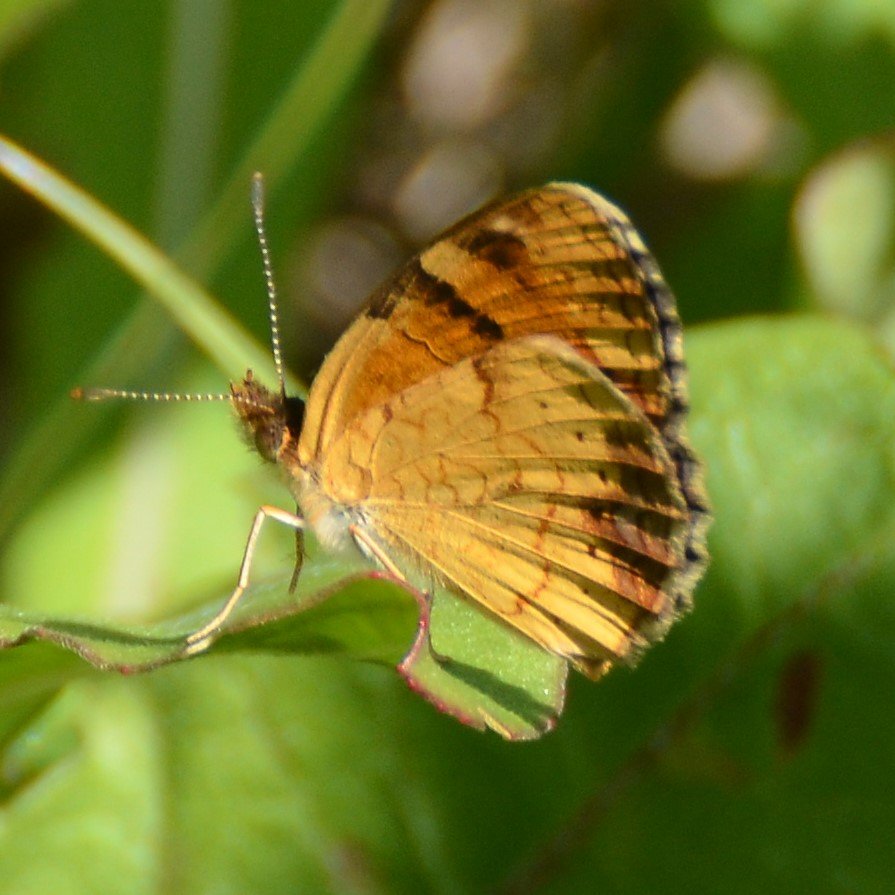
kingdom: Animalia
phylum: Arthropoda
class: Insecta
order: Lepidoptera
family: Nymphalidae
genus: Phyciodes
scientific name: Phyciodes tharos
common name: Northern Crescent
